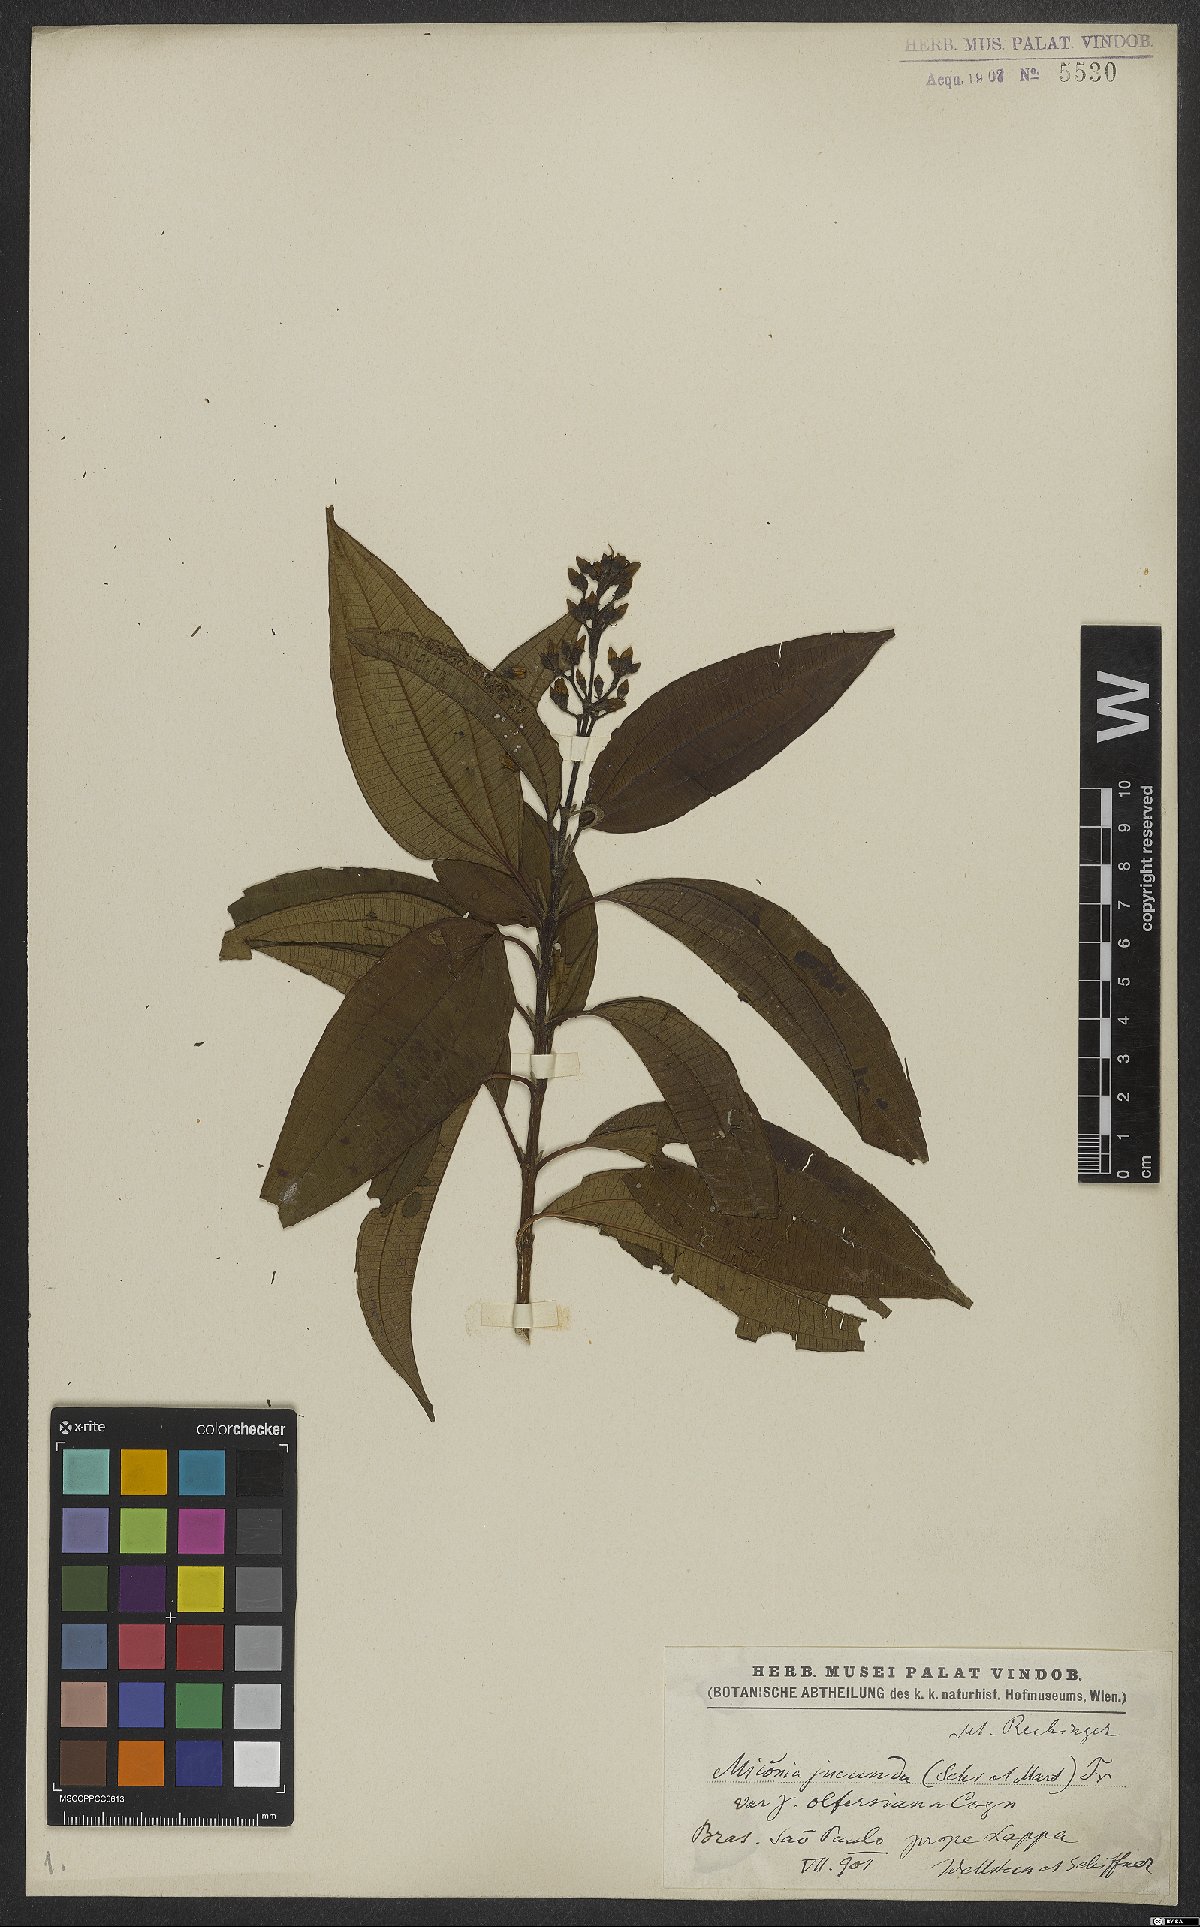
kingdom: Plantae
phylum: Tracheophyta
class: Magnoliopsida
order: Myrtales
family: Melastomataceae
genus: Miconia
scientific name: Miconia jucunda
